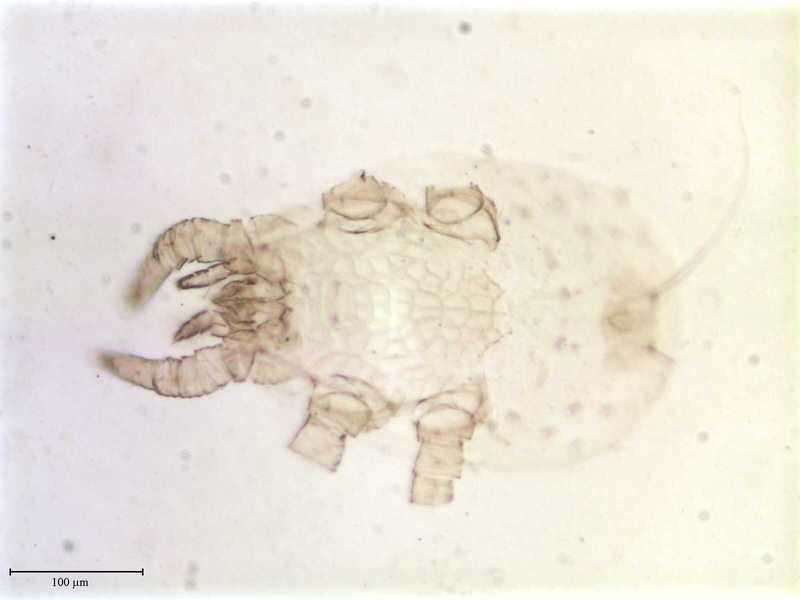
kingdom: Animalia
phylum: Arthropoda
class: Arachnida
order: Mesostigmata
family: Trematuridae
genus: Trichouropoda
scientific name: Trichouropoda vitzthumilongiseta
